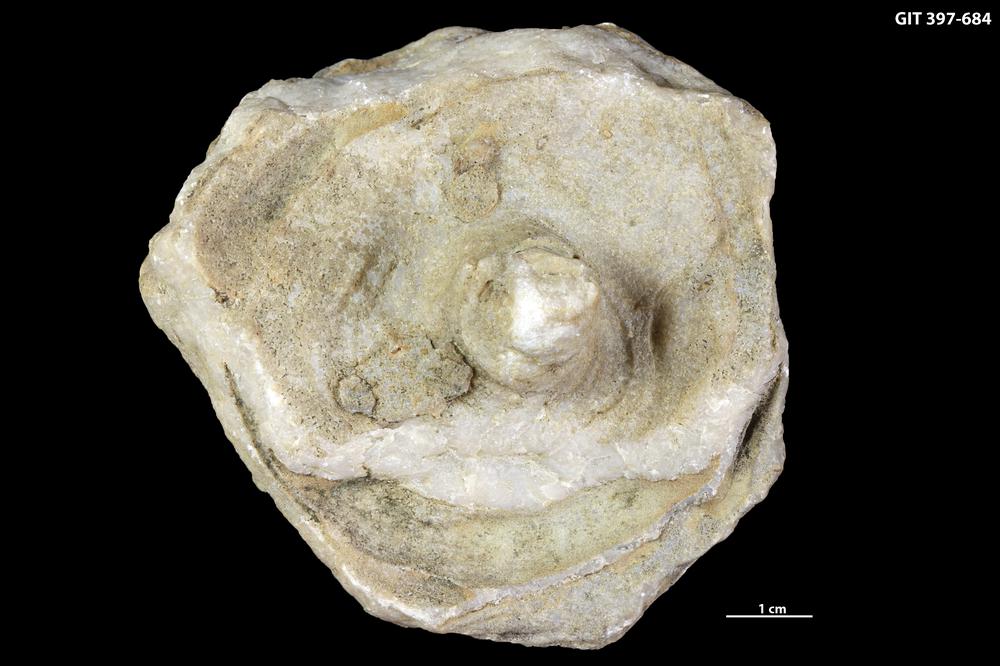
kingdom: Animalia
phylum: Cnidaria
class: Anthozoa
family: Kodonophyllidae
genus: Schlotheimophyllum
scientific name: Schlotheimophyllum
